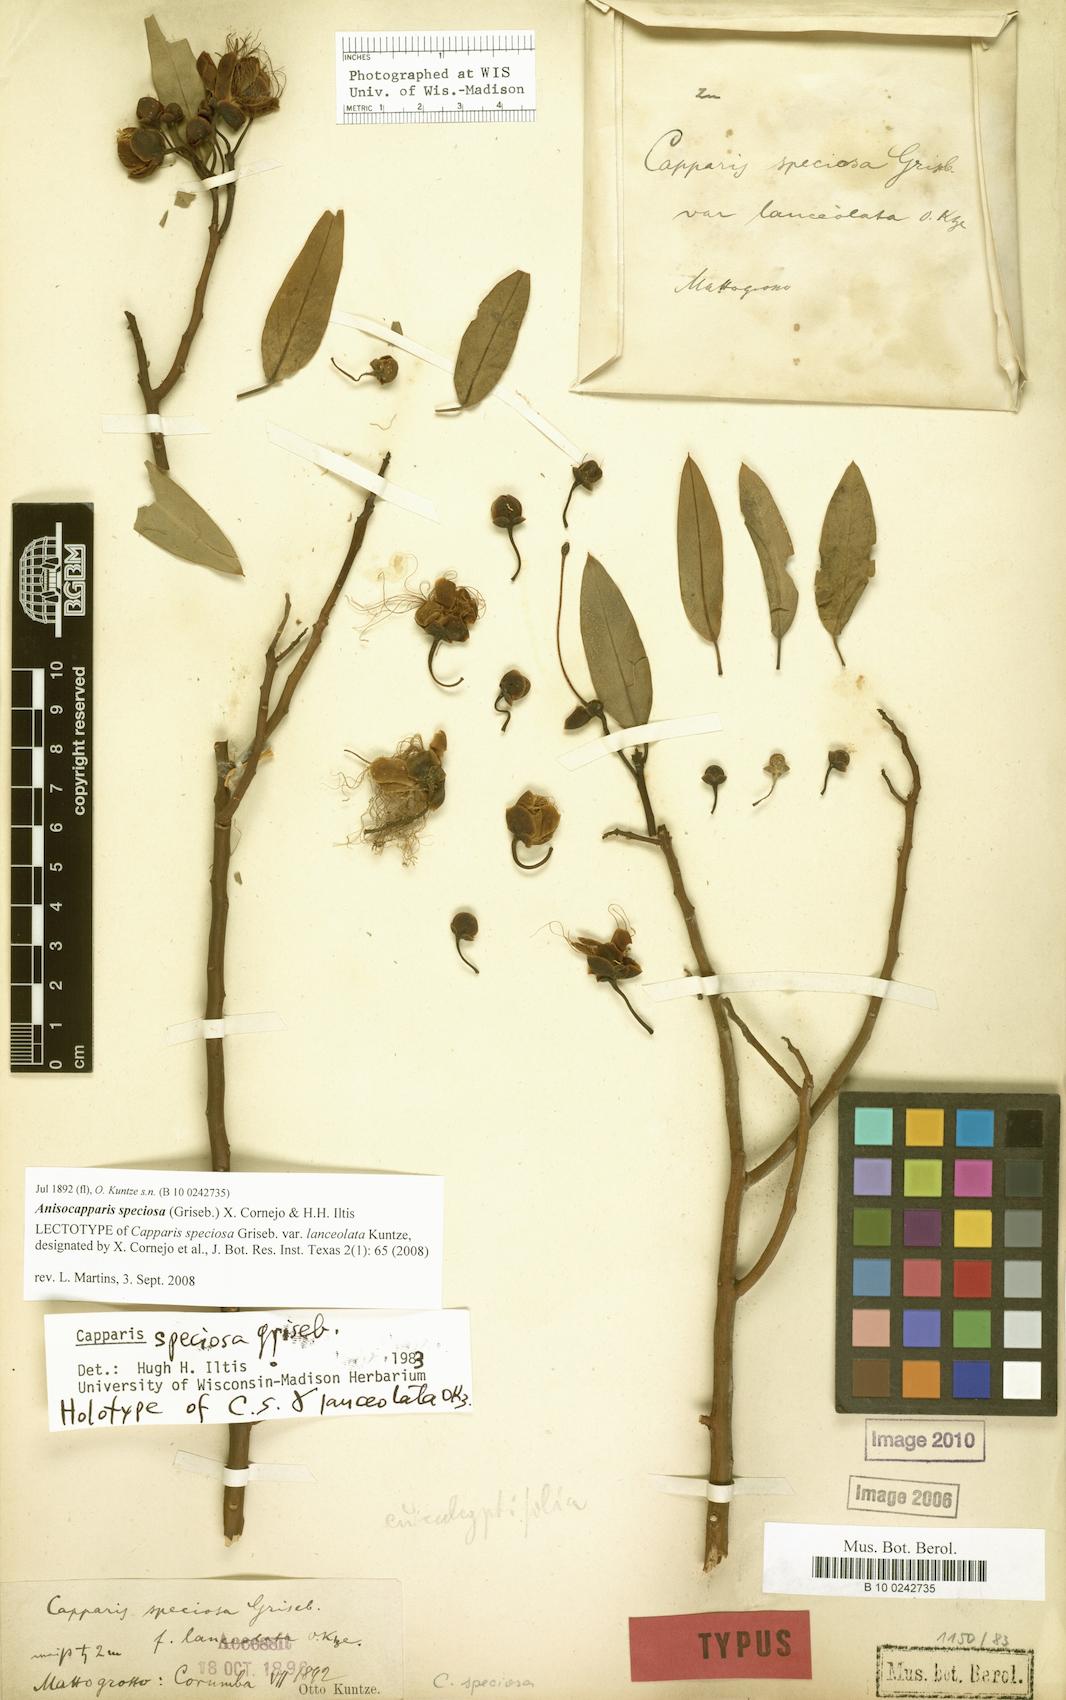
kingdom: Plantae
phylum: Tracheophyta
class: Magnoliopsida
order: Brassicales
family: Capparaceae
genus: Anisocapparis
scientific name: Anisocapparis speciosa
